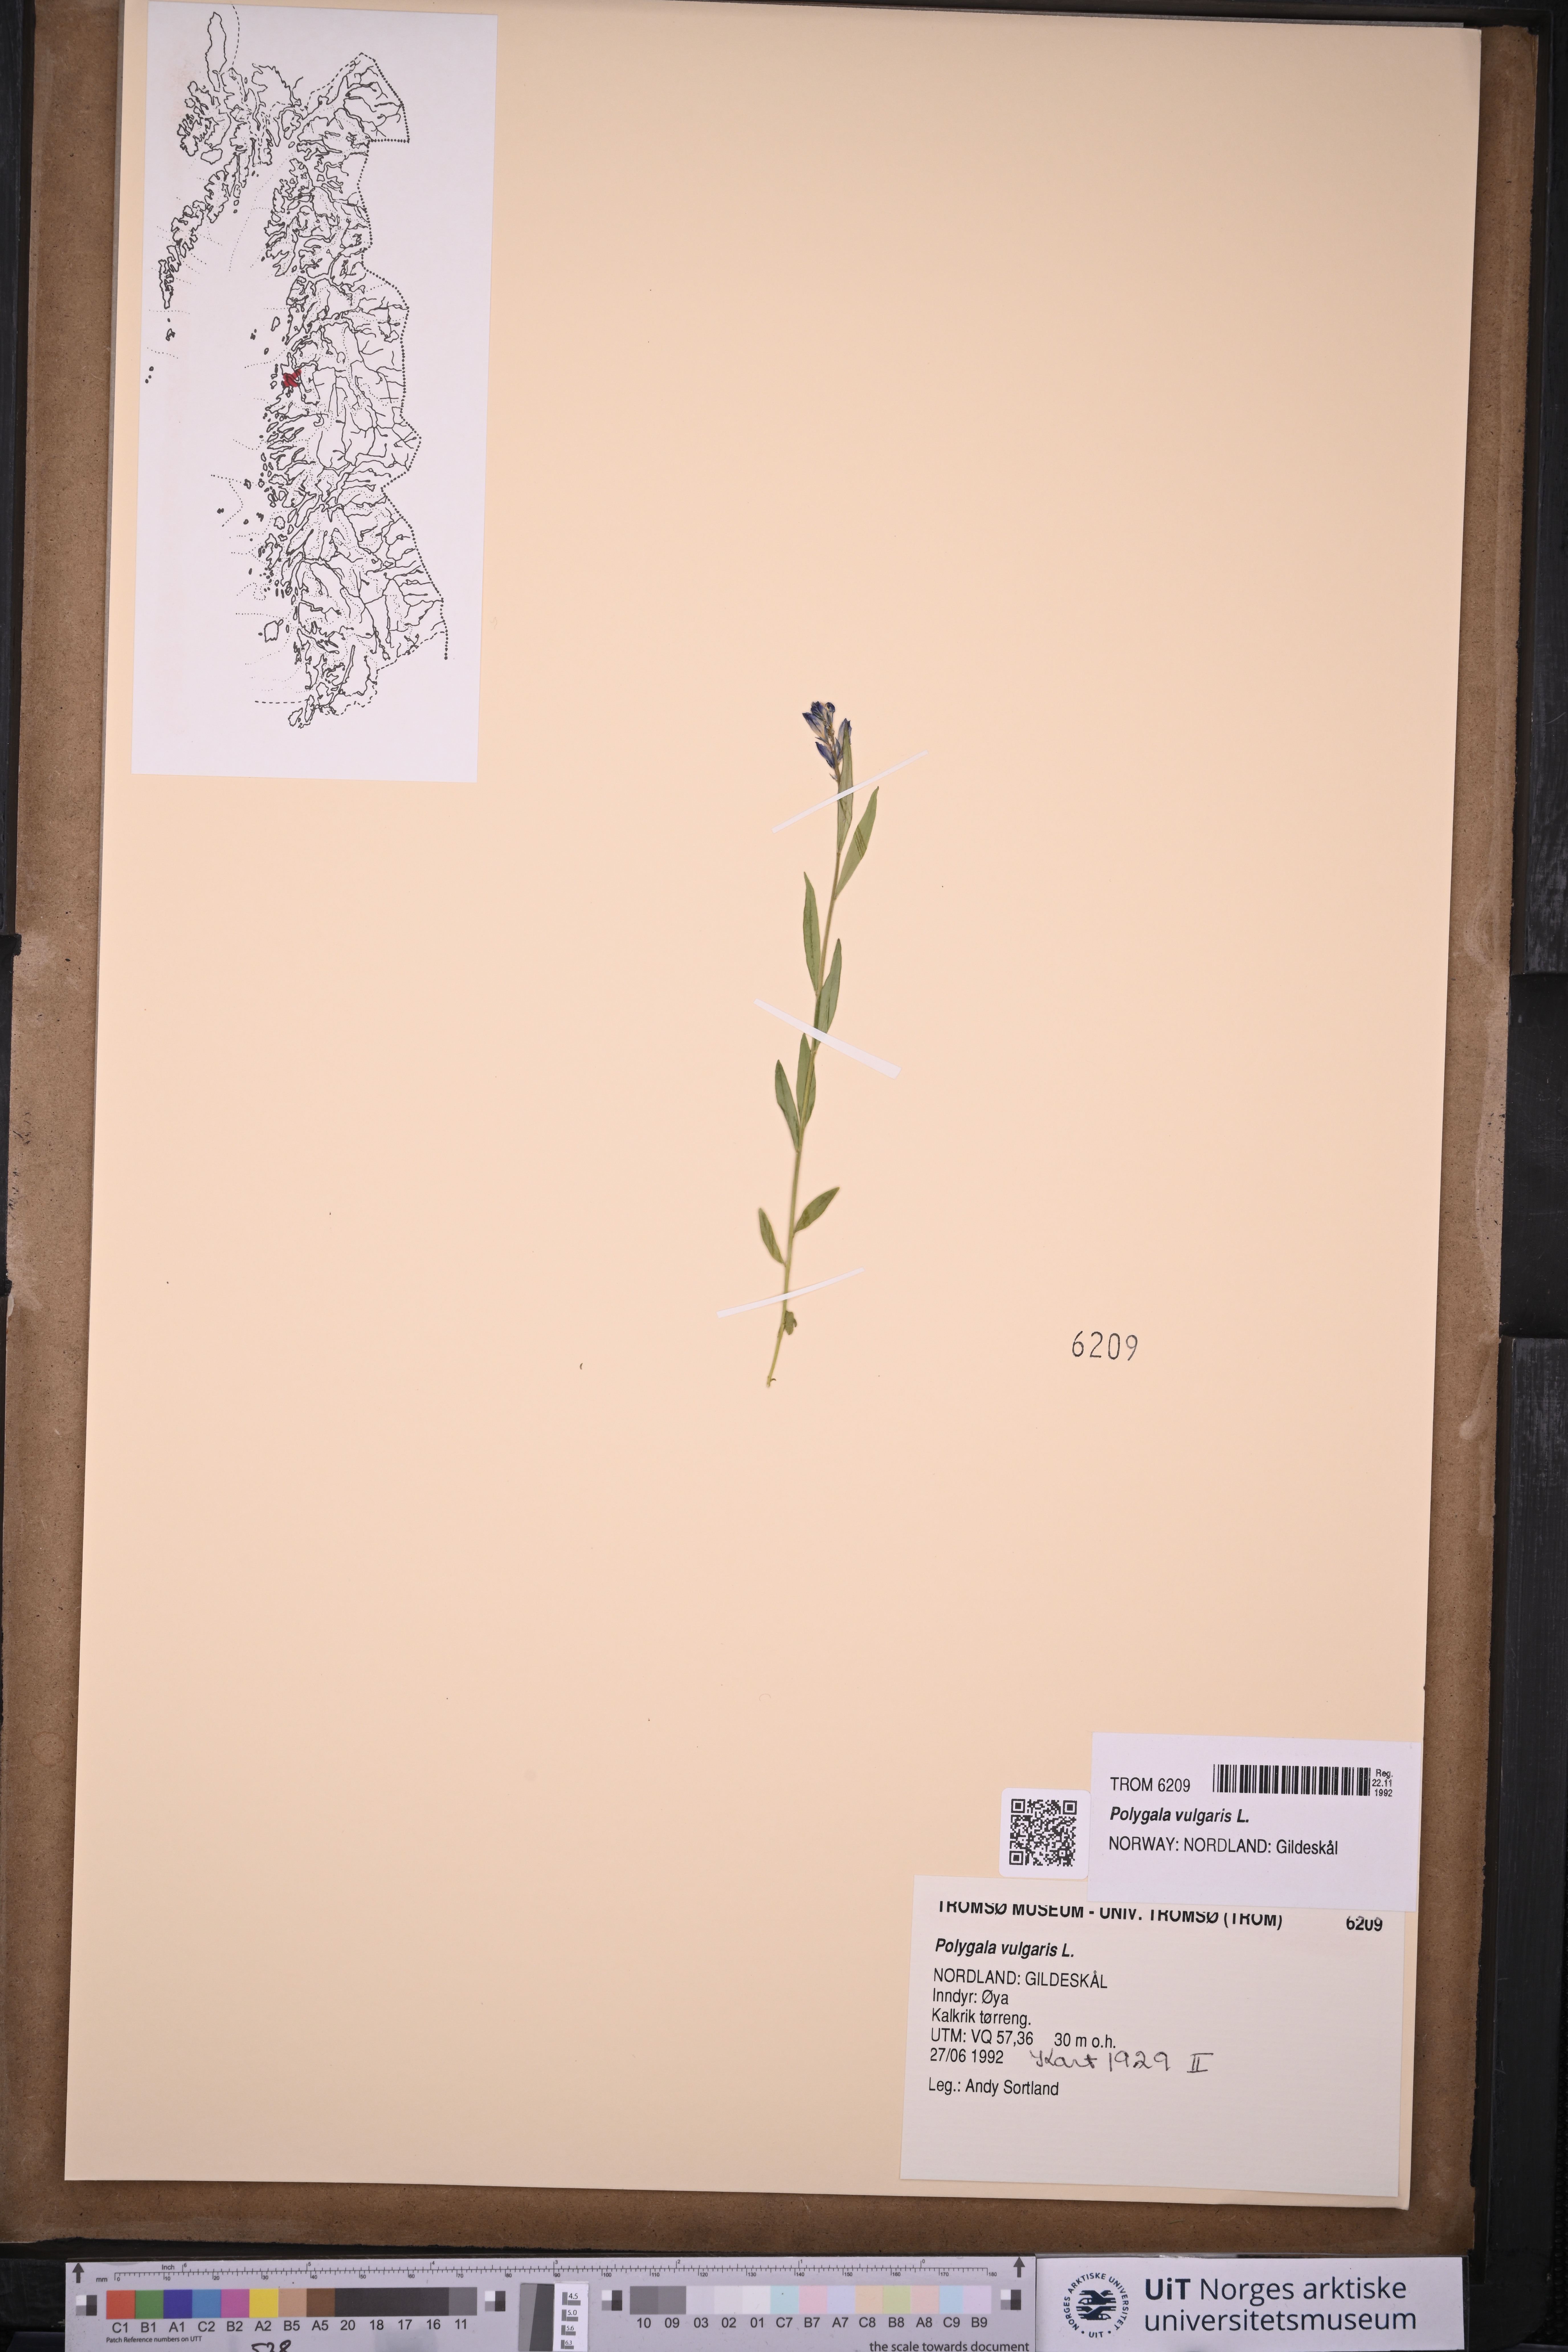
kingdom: Plantae
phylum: Tracheophyta
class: Magnoliopsida
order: Fabales
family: Polygalaceae
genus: Polygala
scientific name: Polygala vulgaris
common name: Common milkwort
